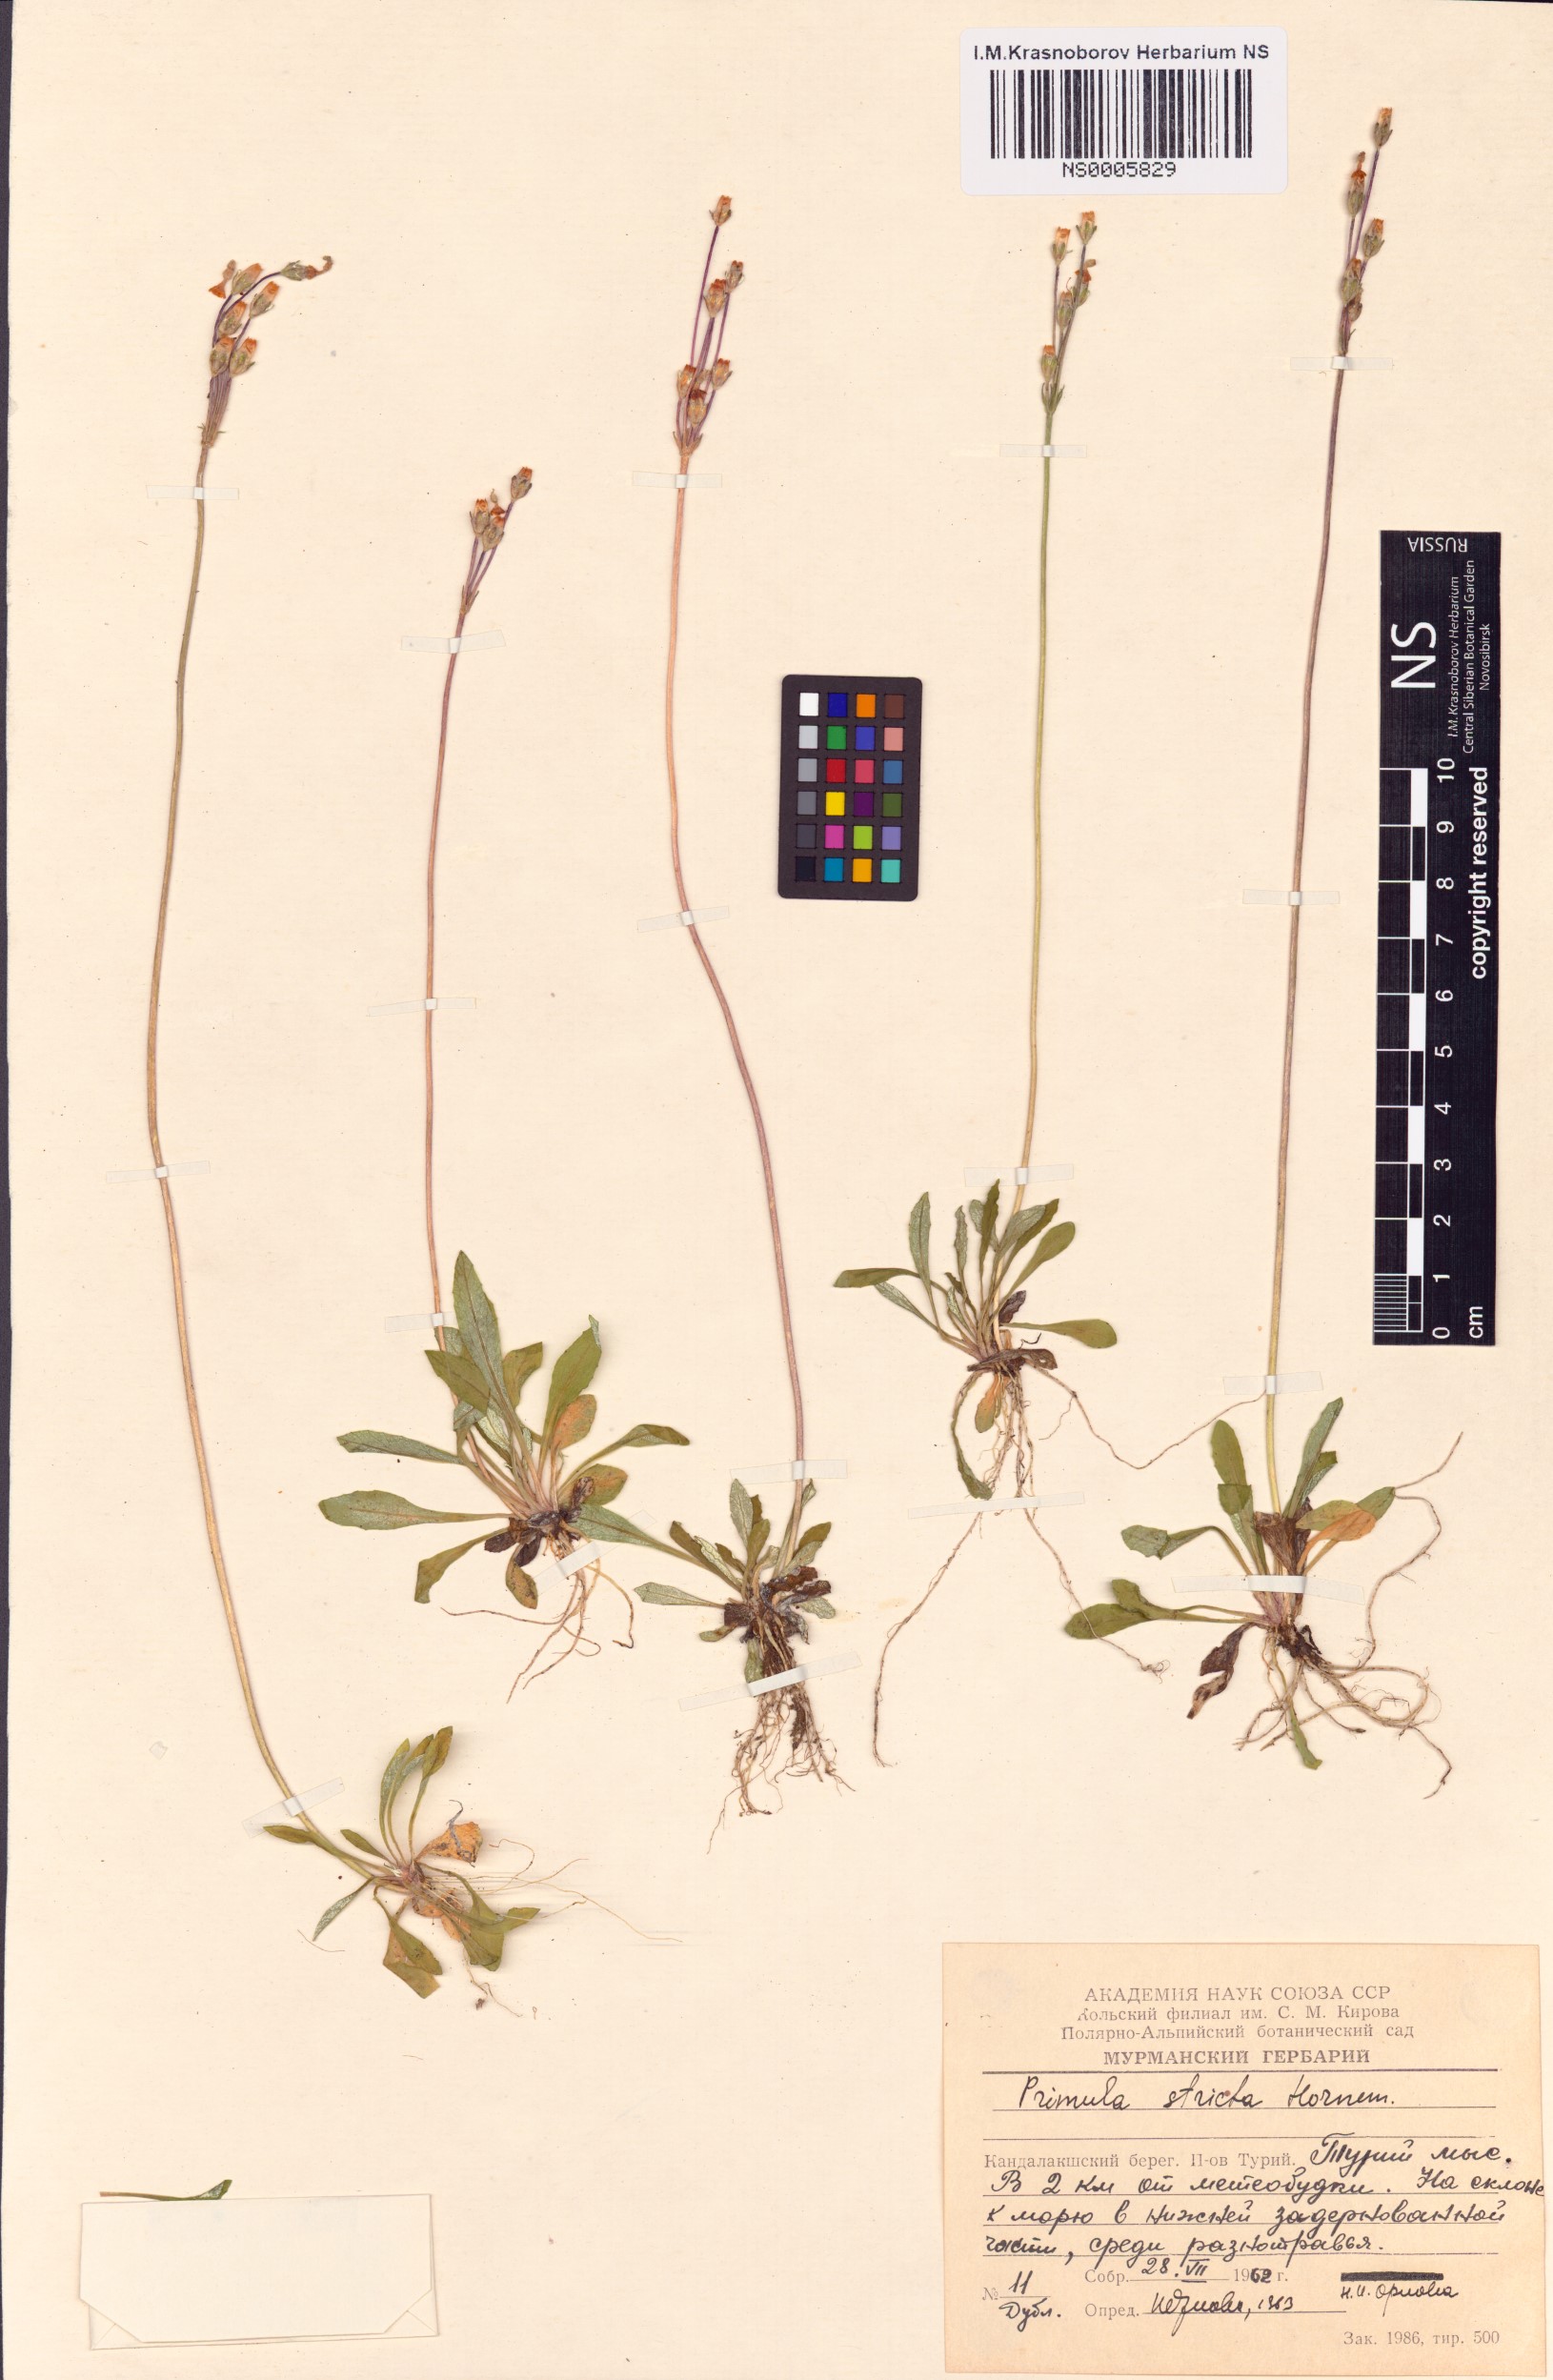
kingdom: Plantae
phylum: Tracheophyta
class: Magnoliopsida
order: Ericales
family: Primulaceae
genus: Primula
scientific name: Primula stricta
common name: Coastal primrose
